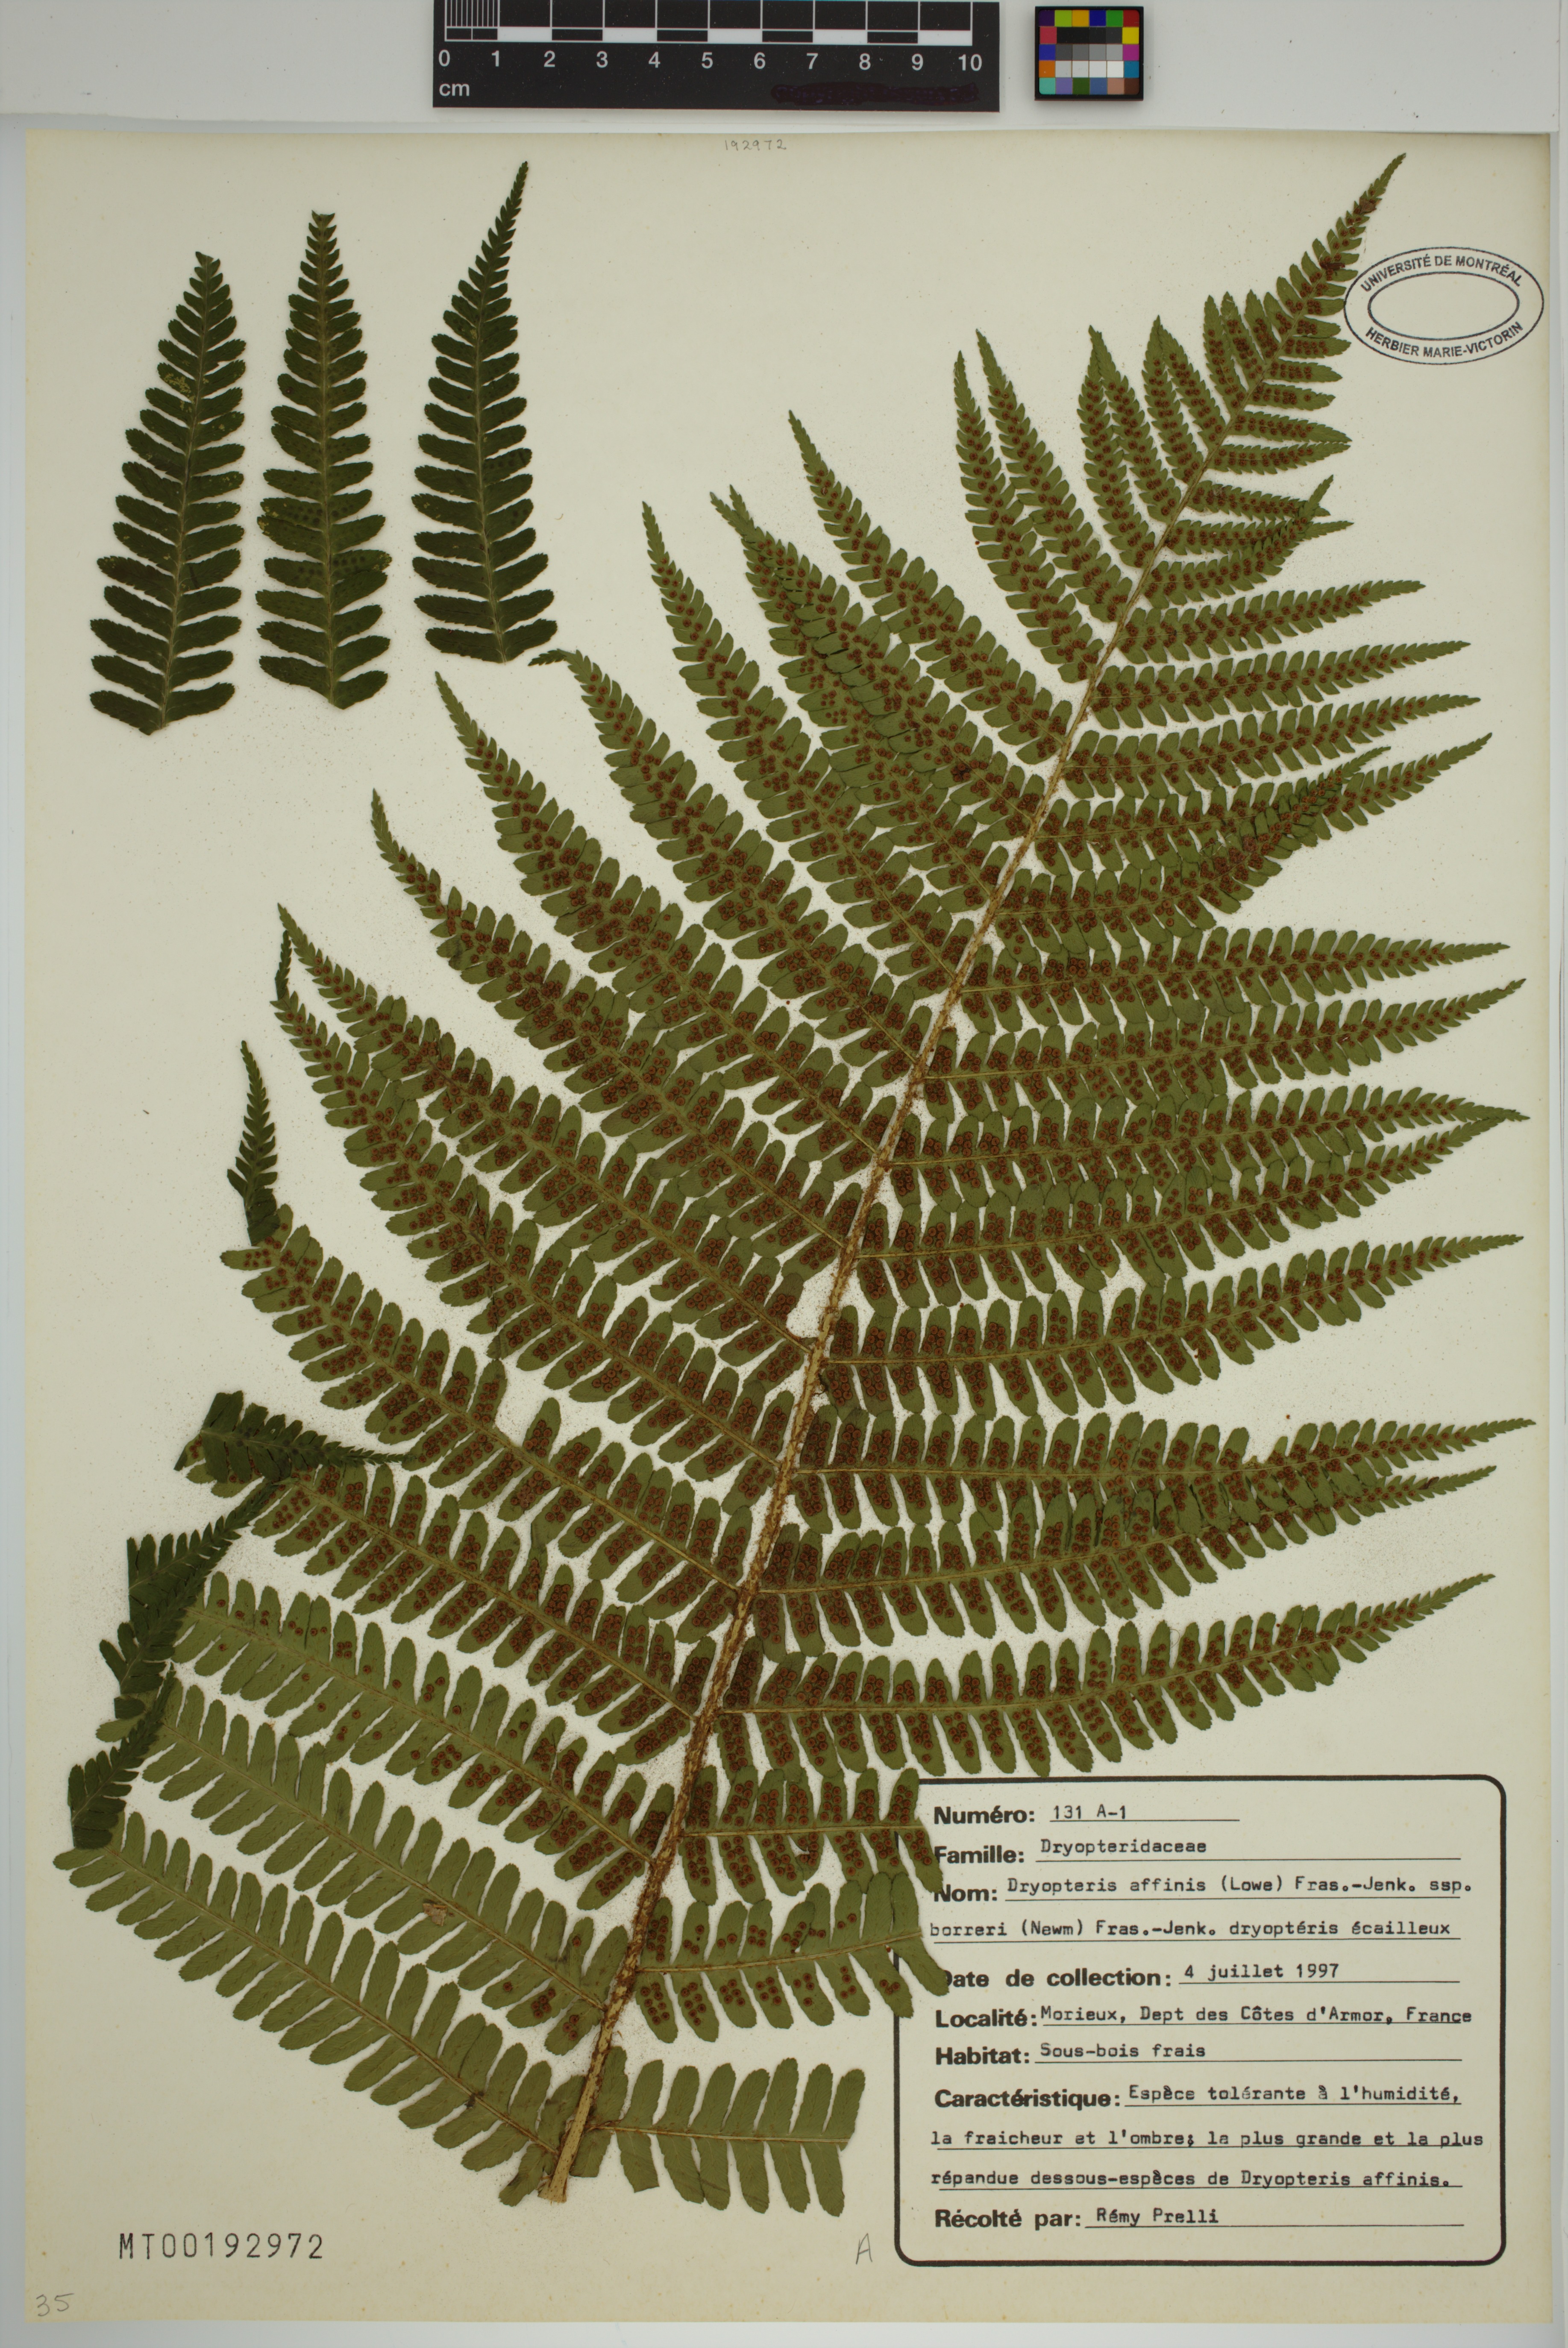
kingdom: Plantae
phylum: Tracheophyta
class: Polypodiopsida
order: Polypodiales
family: Dryopteridaceae
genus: Dryopteris
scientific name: Dryopteris borreri
